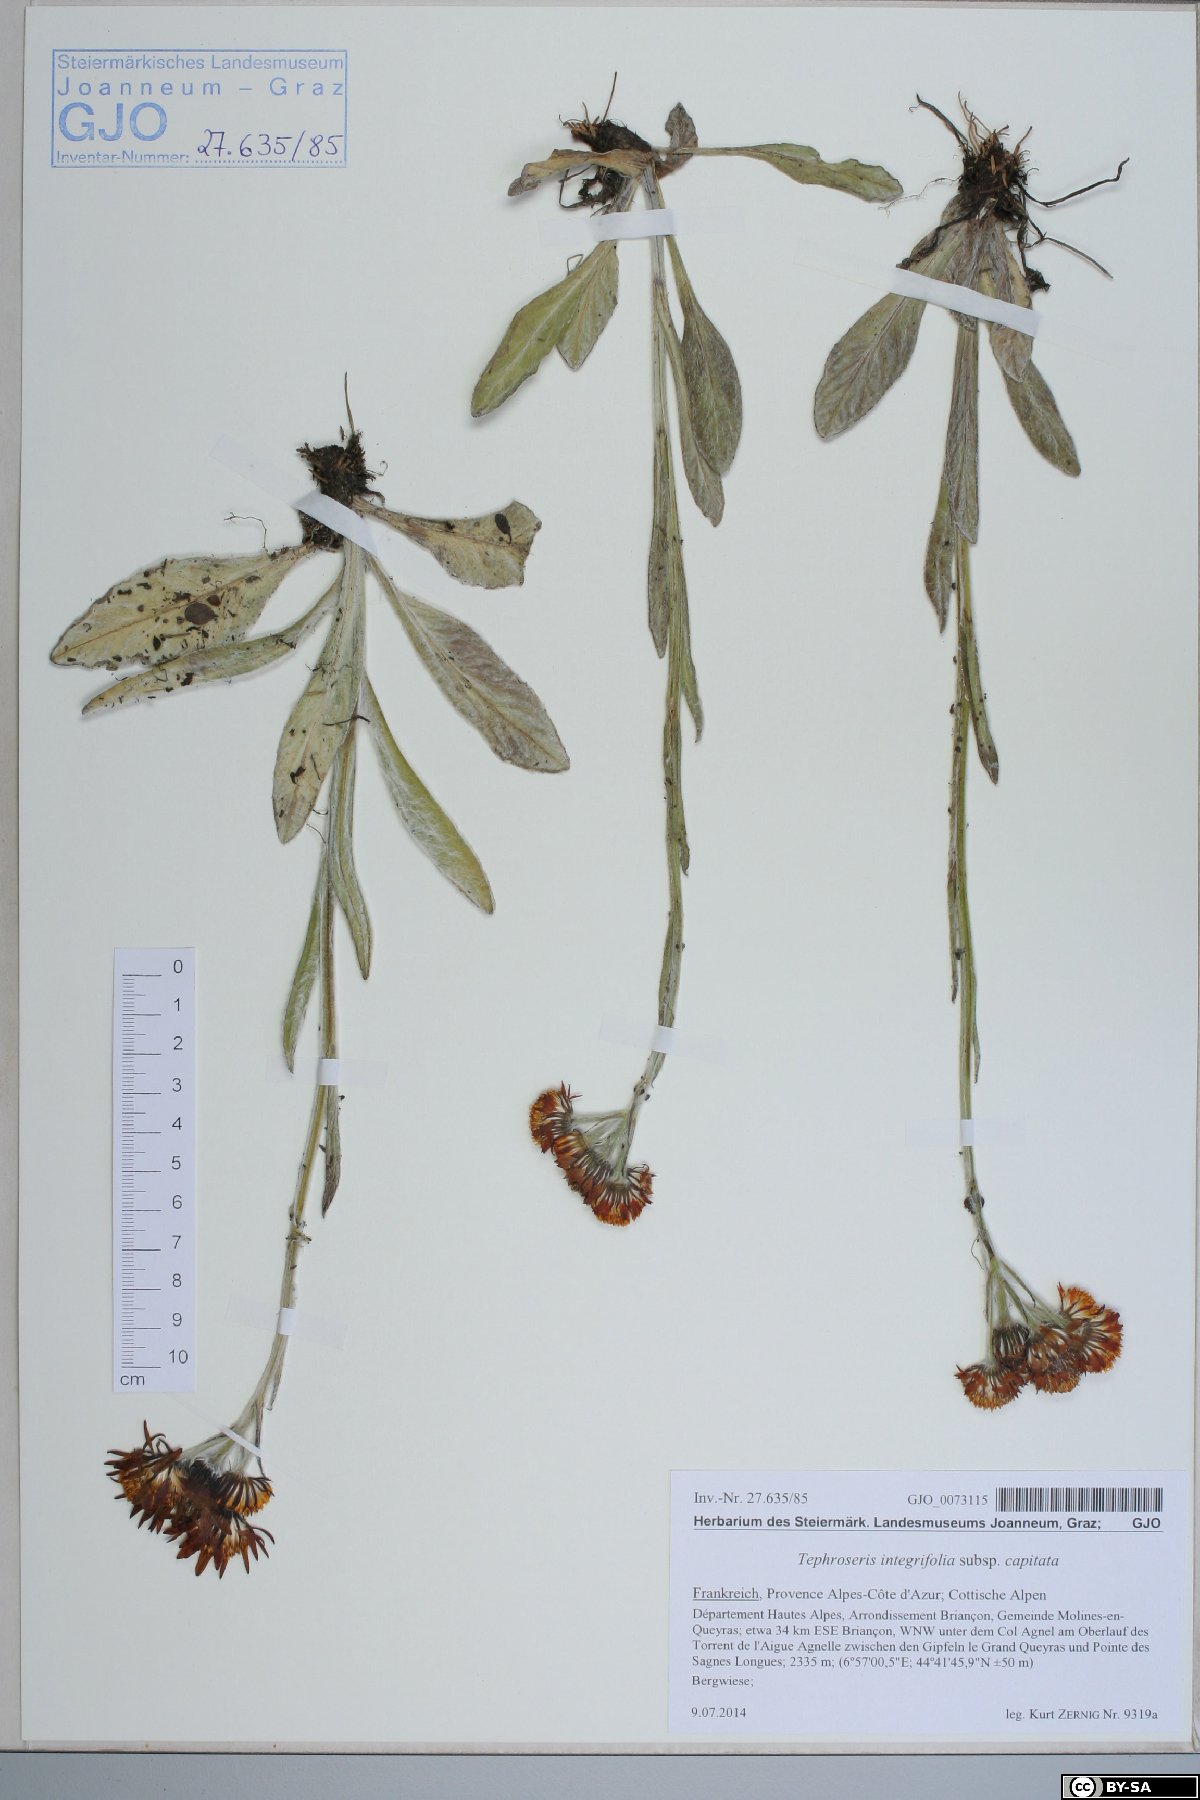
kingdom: Plantae
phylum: Tracheophyta
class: Magnoliopsida
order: Asterales
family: Asteraceae
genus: Tephroseris
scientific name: Tephroseris integrifolia
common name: Field fleawort
